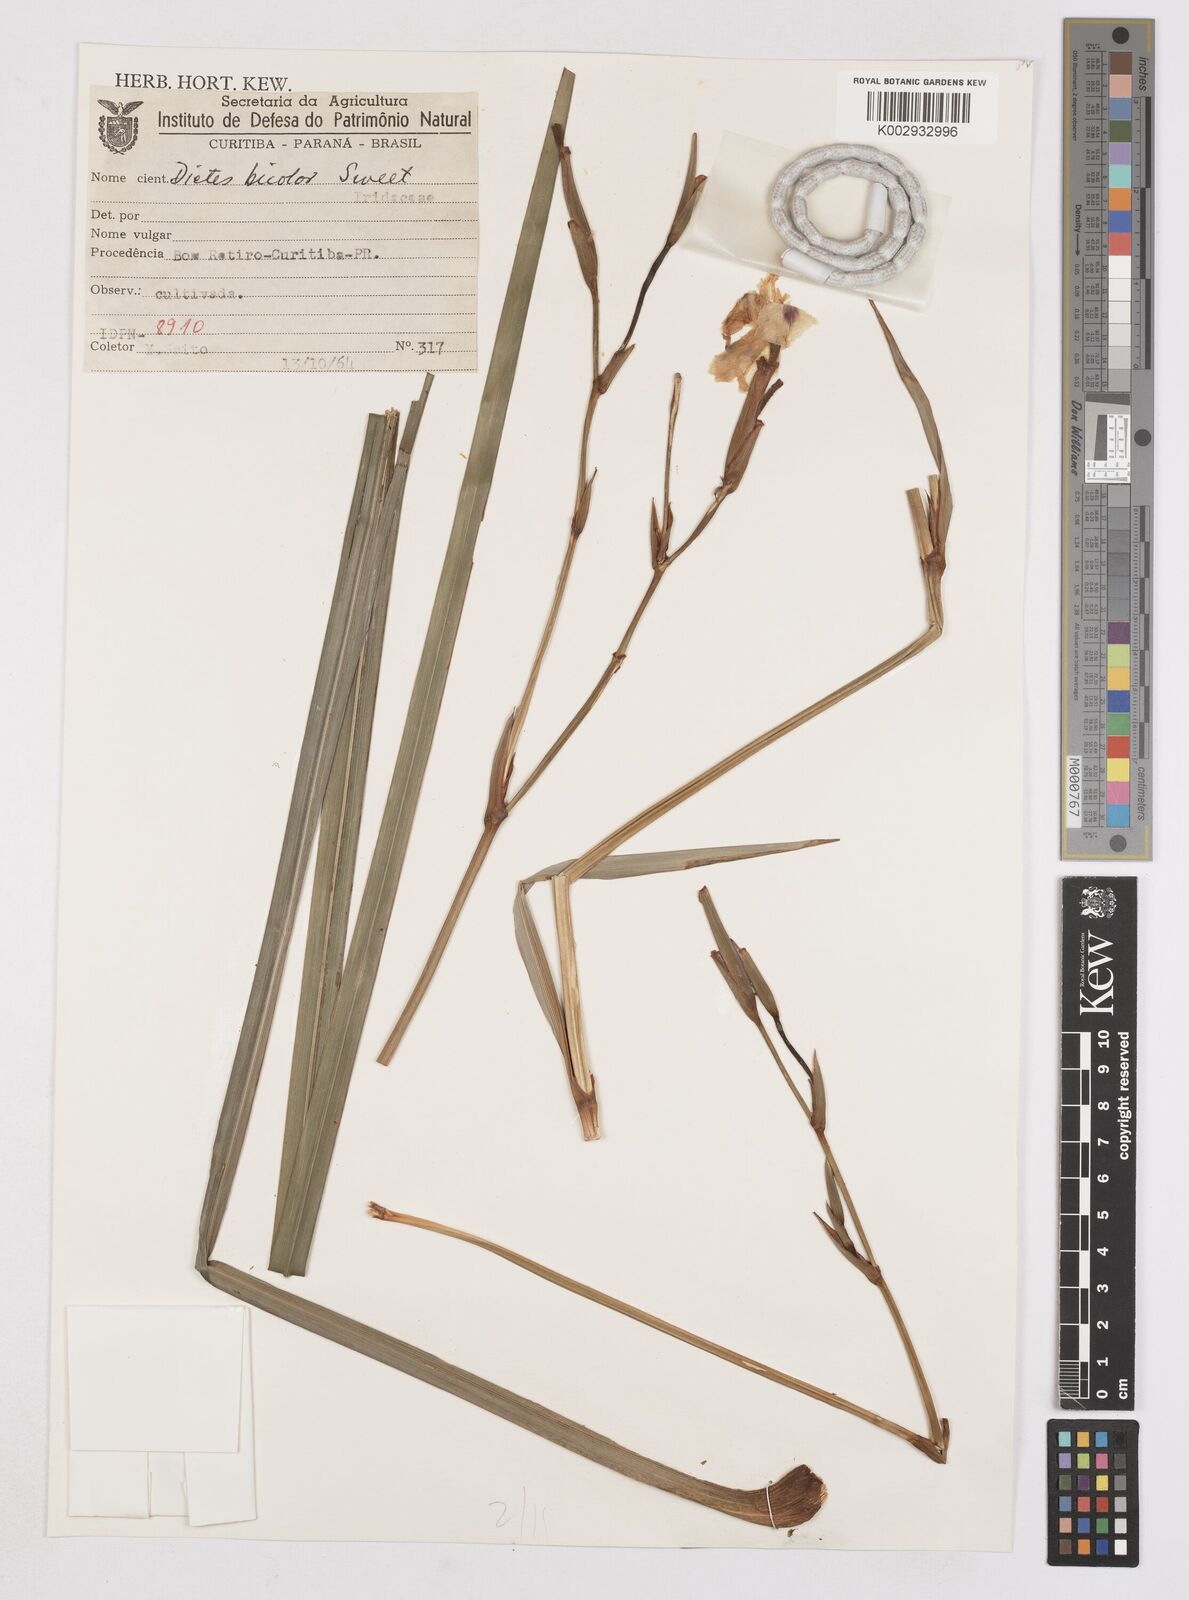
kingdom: Plantae
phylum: Tracheophyta
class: Liliopsida
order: Asparagales
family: Iridaceae
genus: Dietes
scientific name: Dietes bicolor
